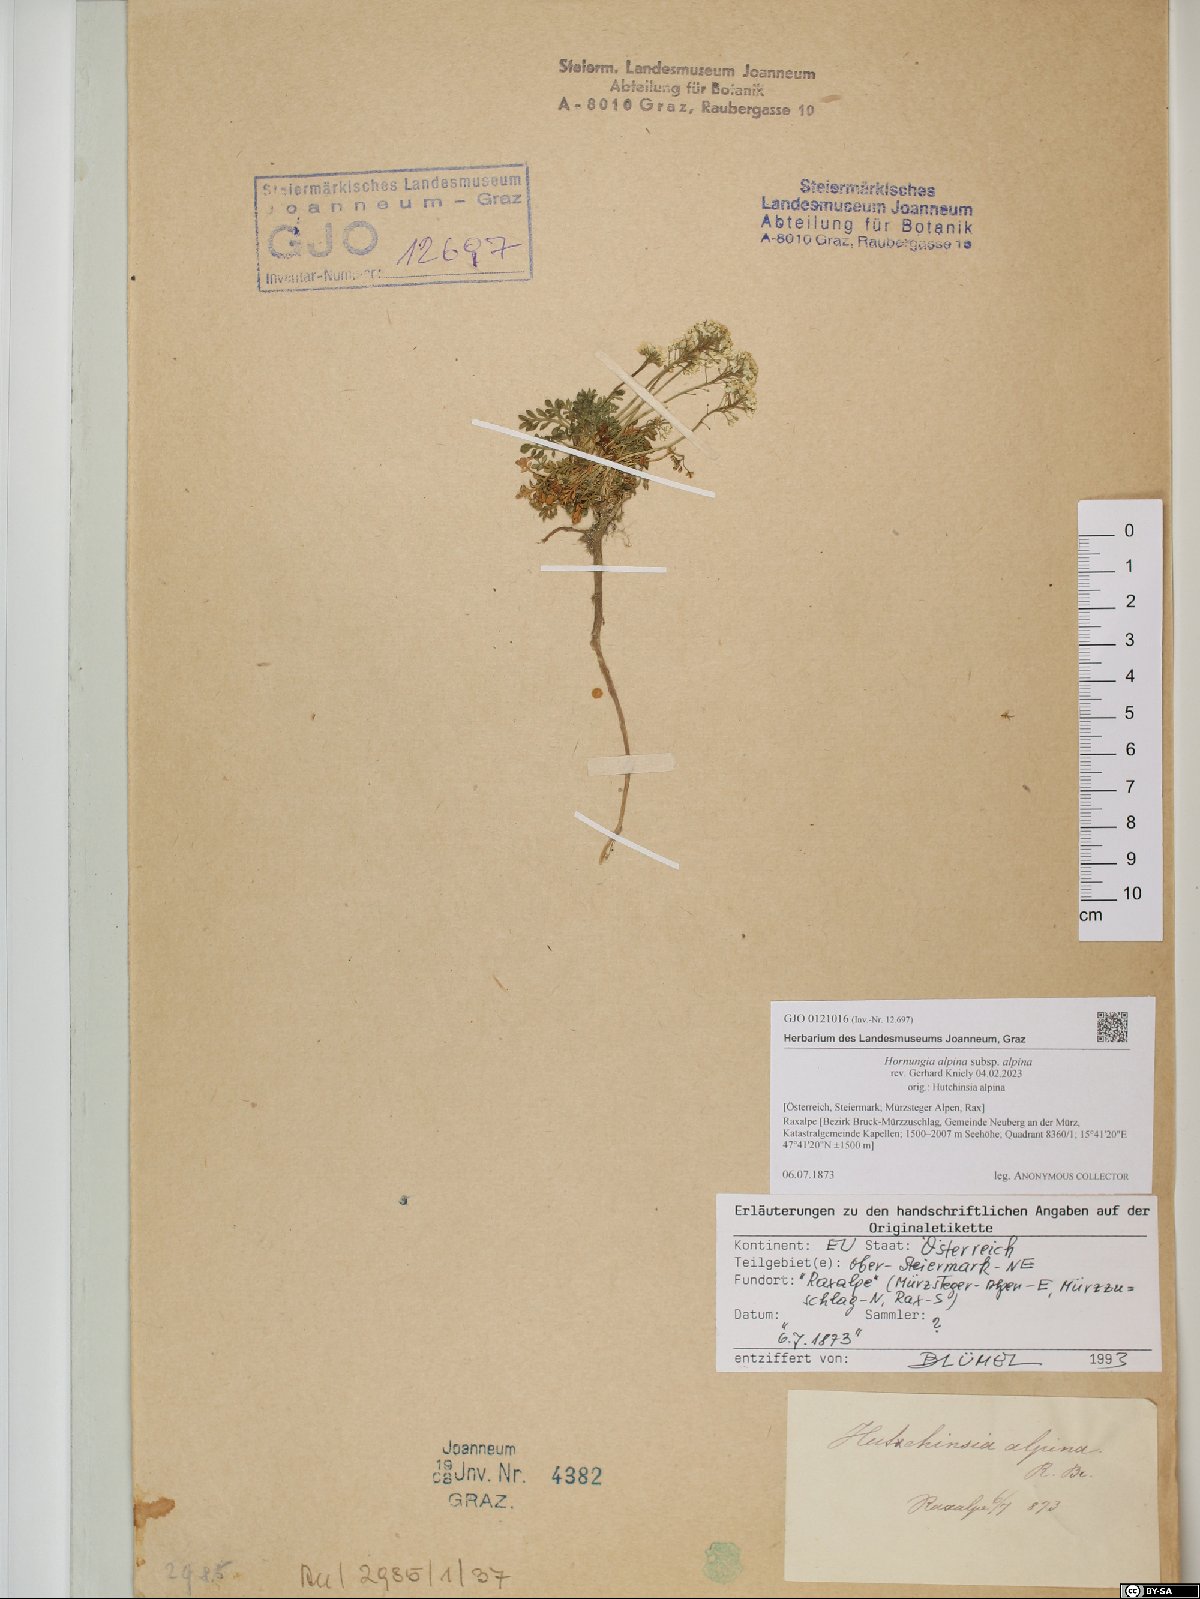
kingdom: Plantae
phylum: Tracheophyta
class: Magnoliopsida
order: Brassicales
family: Brassicaceae
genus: Hornungia
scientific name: Hornungia alpina
